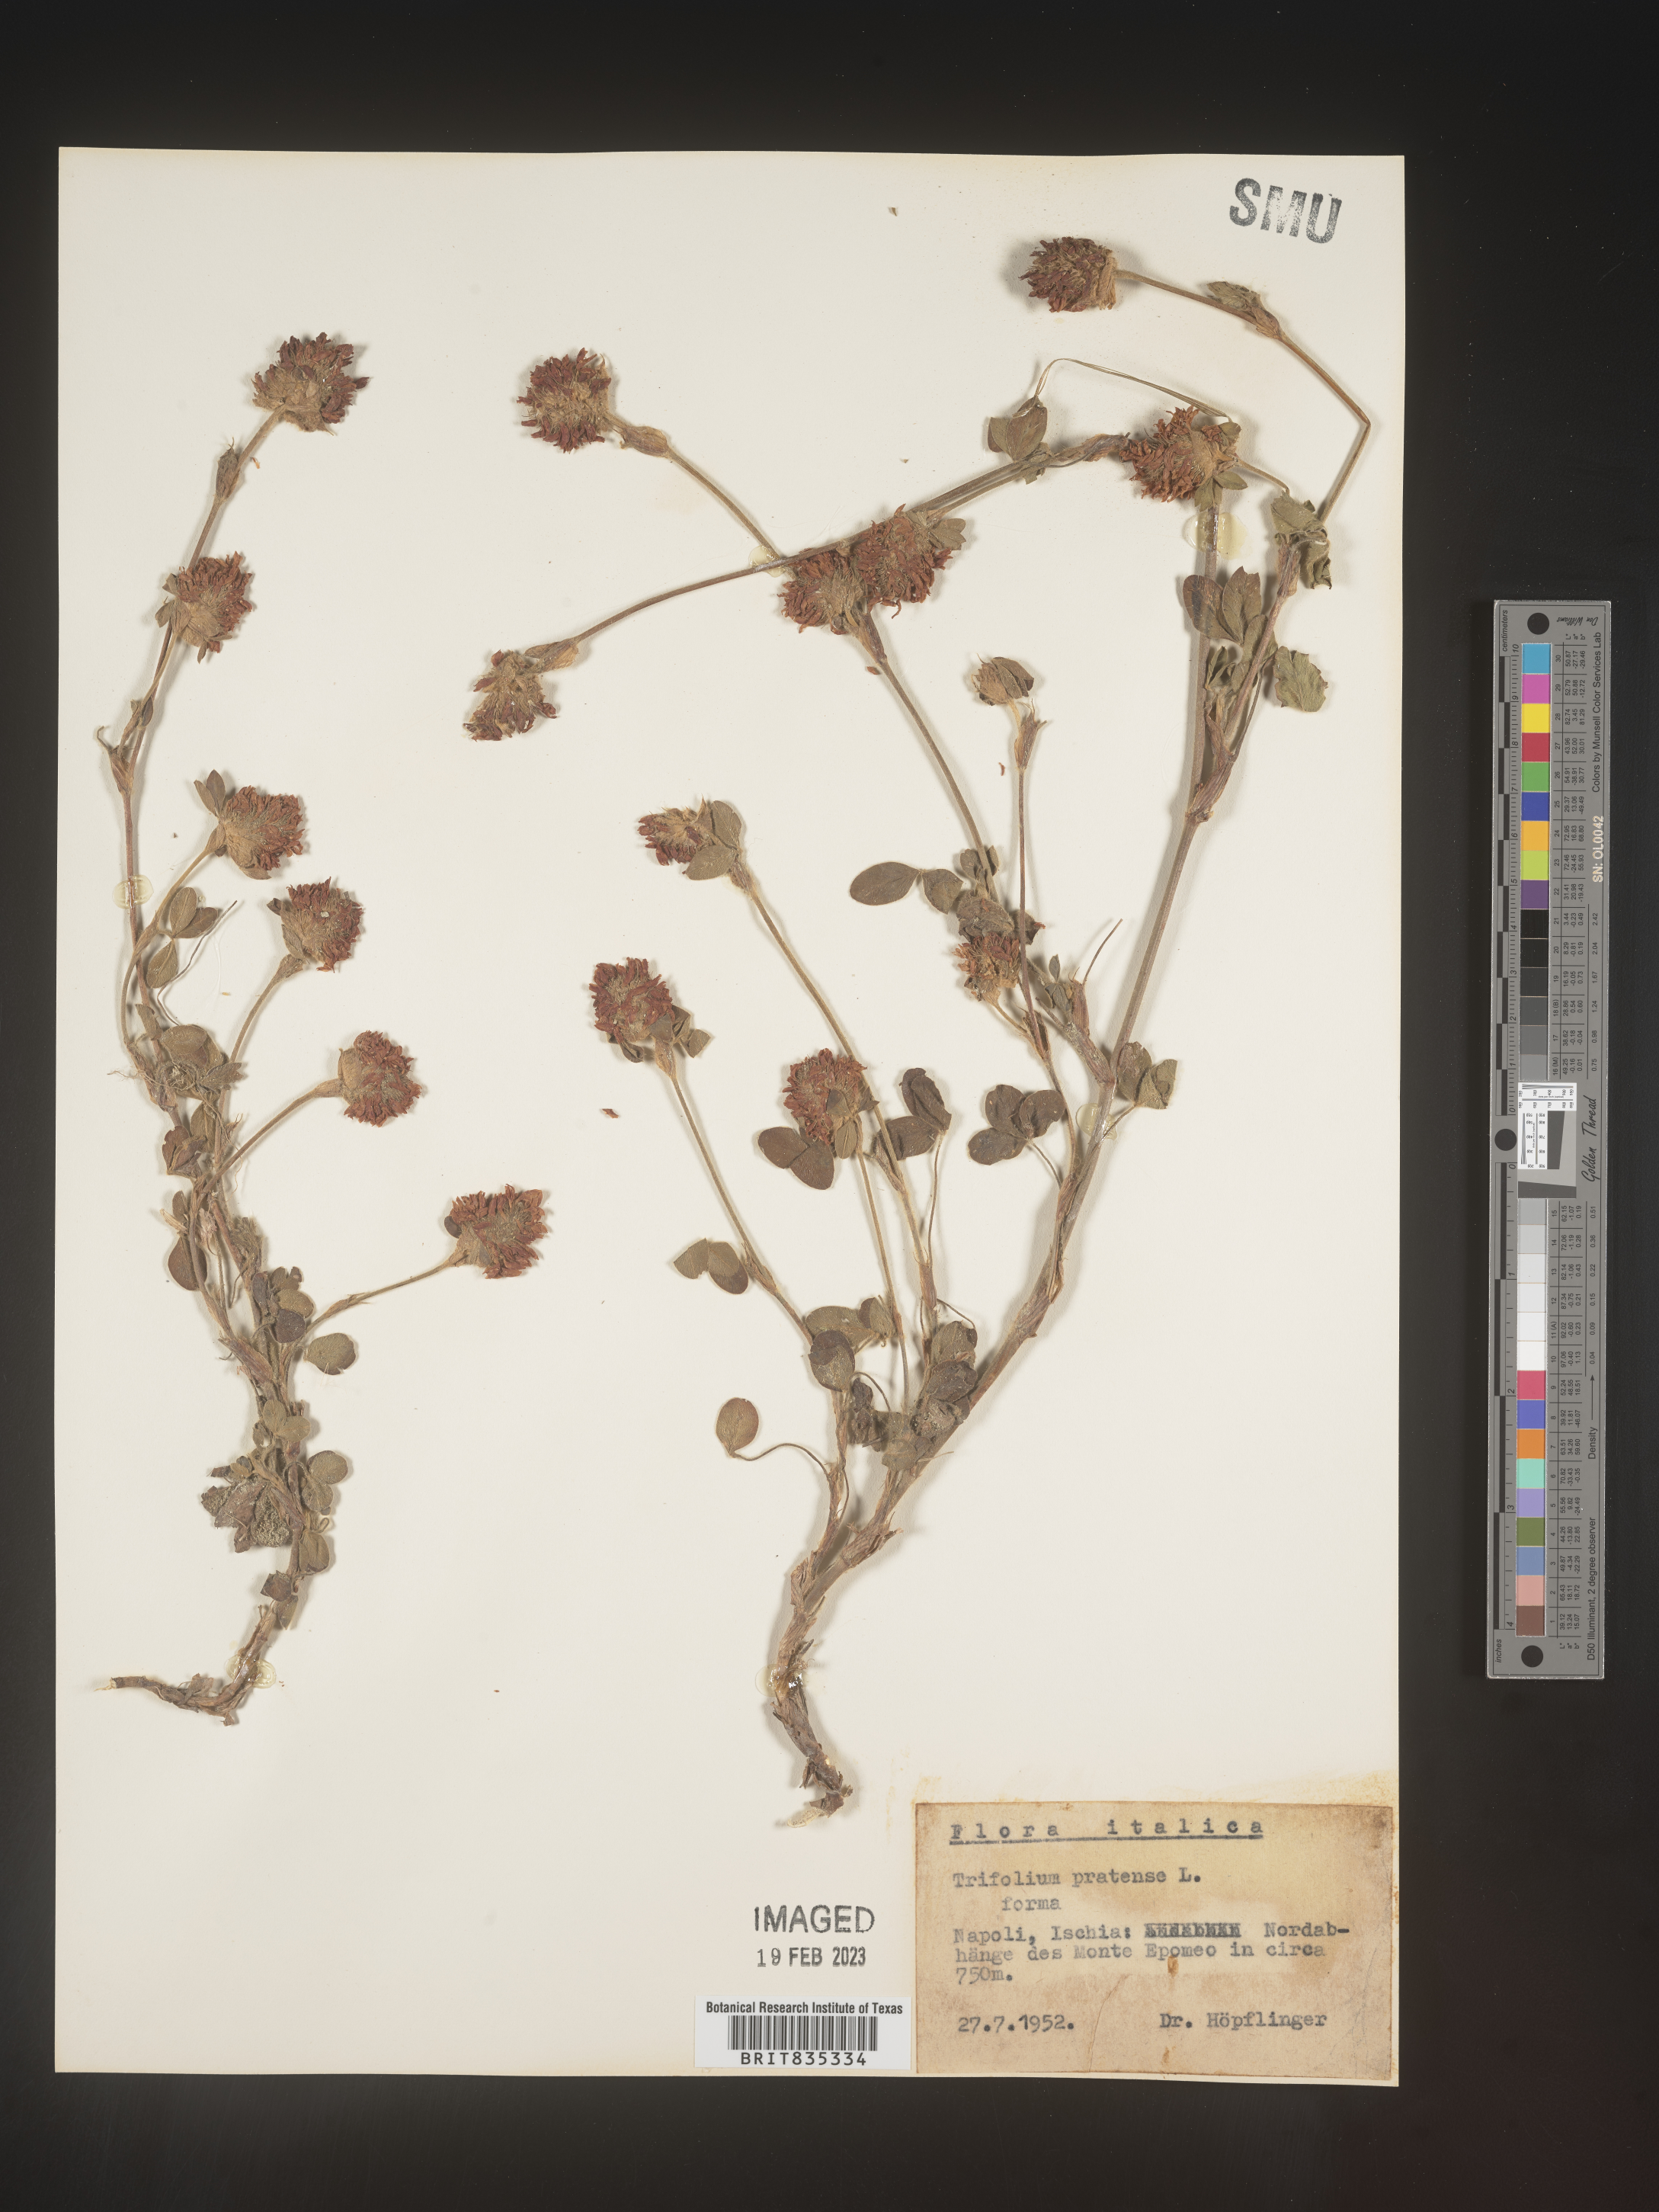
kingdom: Plantae
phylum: Tracheophyta
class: Magnoliopsida
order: Fabales
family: Fabaceae
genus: Trifolium
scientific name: Trifolium
